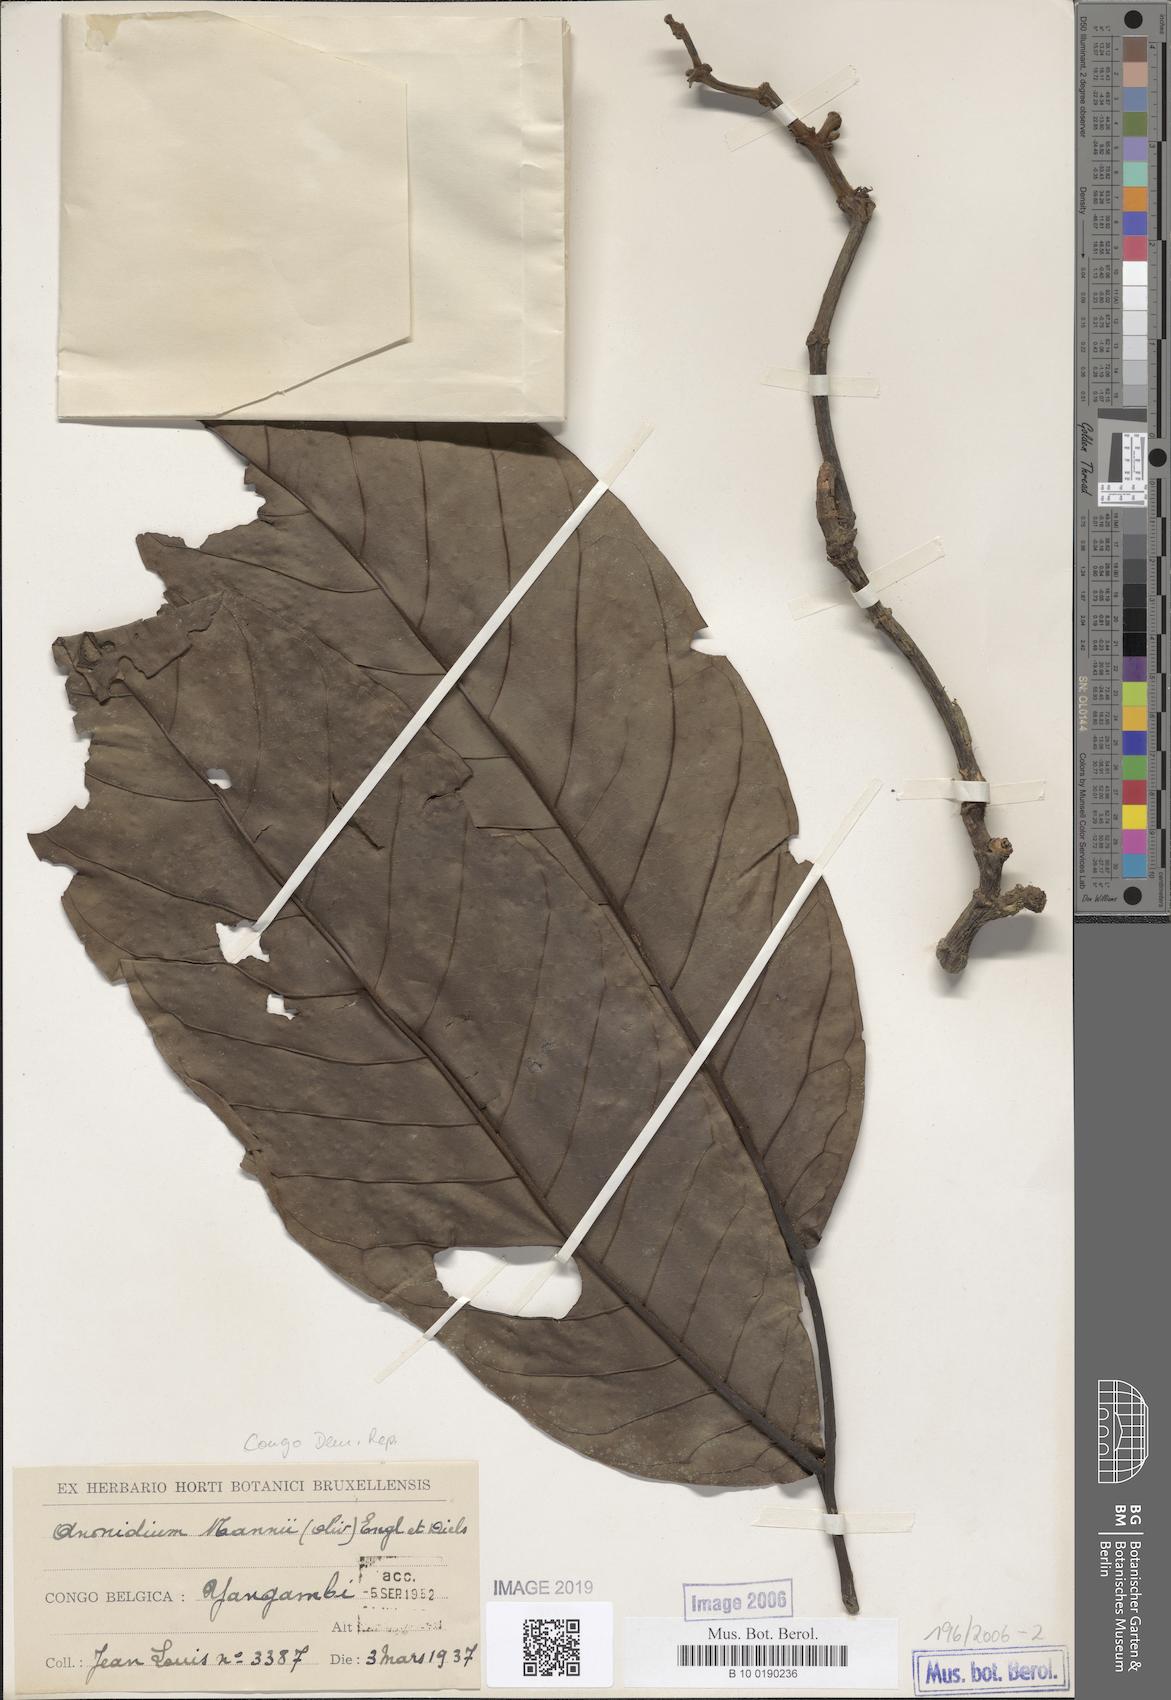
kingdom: Plantae
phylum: Tracheophyta
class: Magnoliopsida
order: Magnoliales
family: Annonaceae
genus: Anonidium
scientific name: Anonidium mannii
